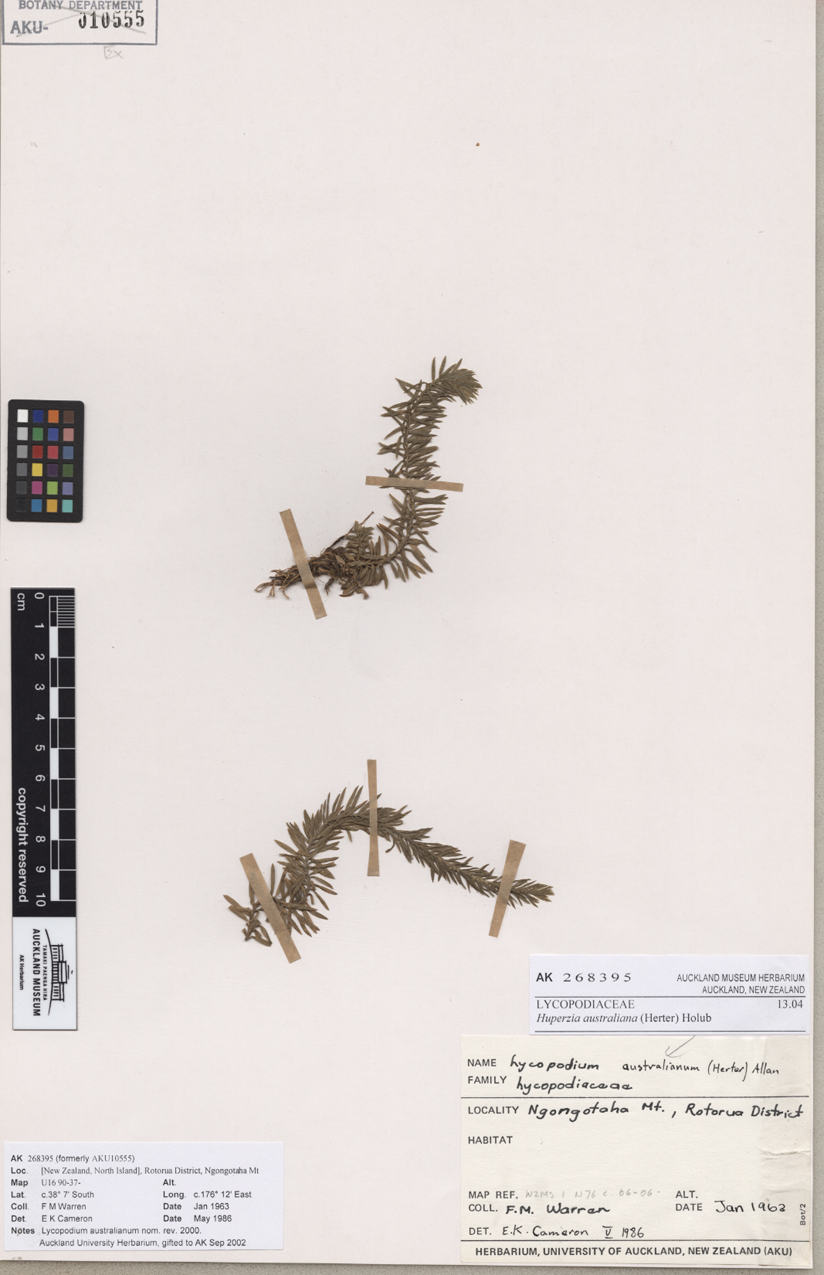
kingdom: Plantae
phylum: Tracheophyta
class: Lycopodiopsida
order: Lycopodiales
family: Lycopodiaceae
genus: Phlegmariurus
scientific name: Phlegmariurus varius
